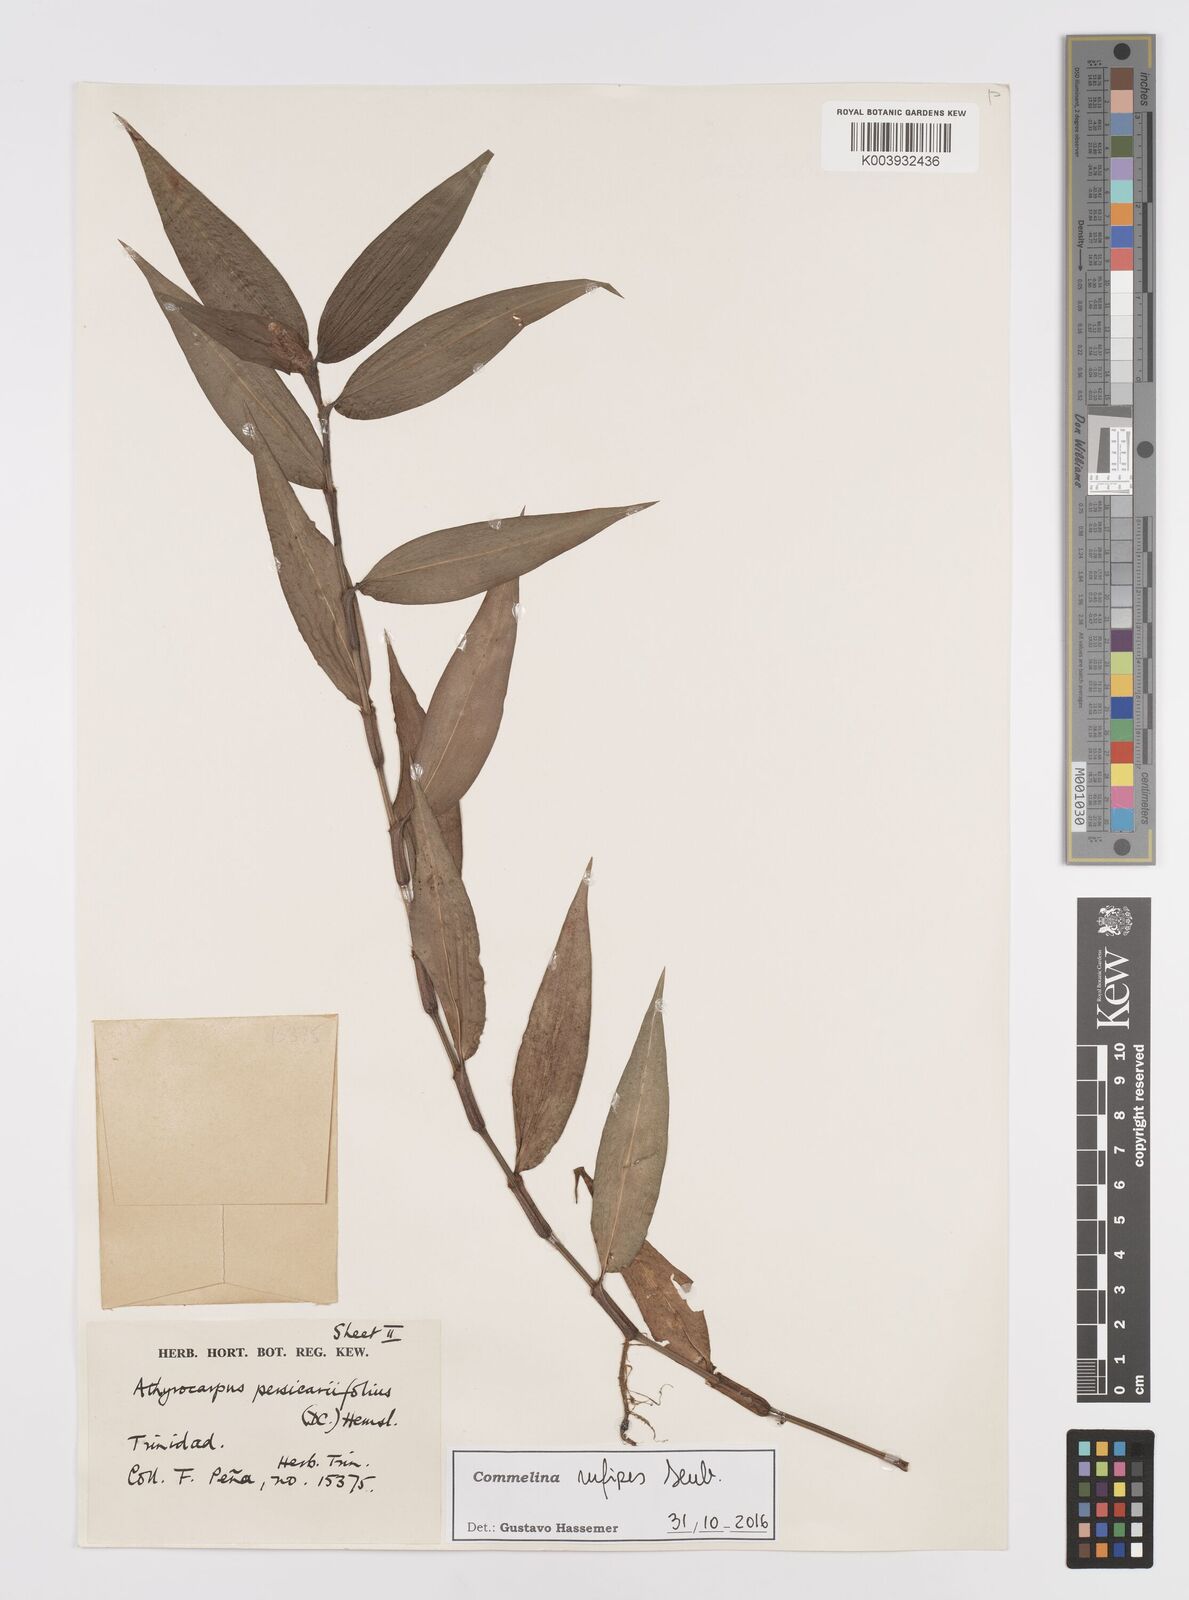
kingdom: Plantae
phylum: Tracheophyta
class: Liliopsida
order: Commelinales
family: Commelinaceae
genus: Commelina
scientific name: Commelina rufipes
